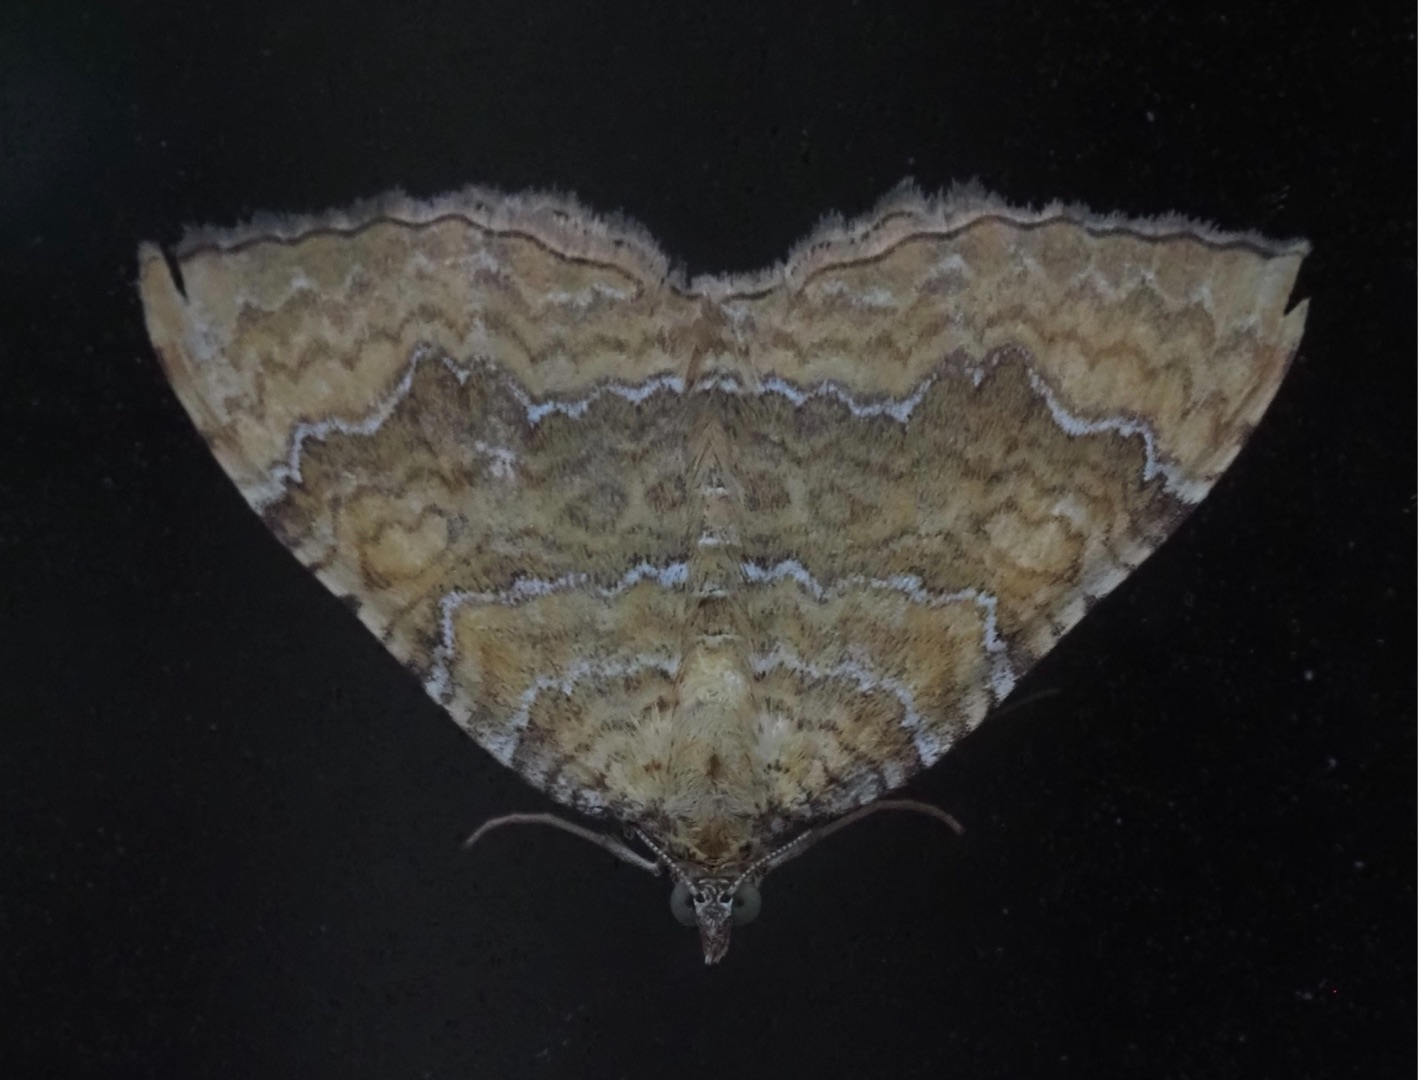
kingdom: Animalia
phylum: Arthropoda
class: Insecta
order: Lepidoptera
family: Geometridae
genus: Camptogramma
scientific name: Camptogramma bilineata
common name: Okkergul bladmåler
